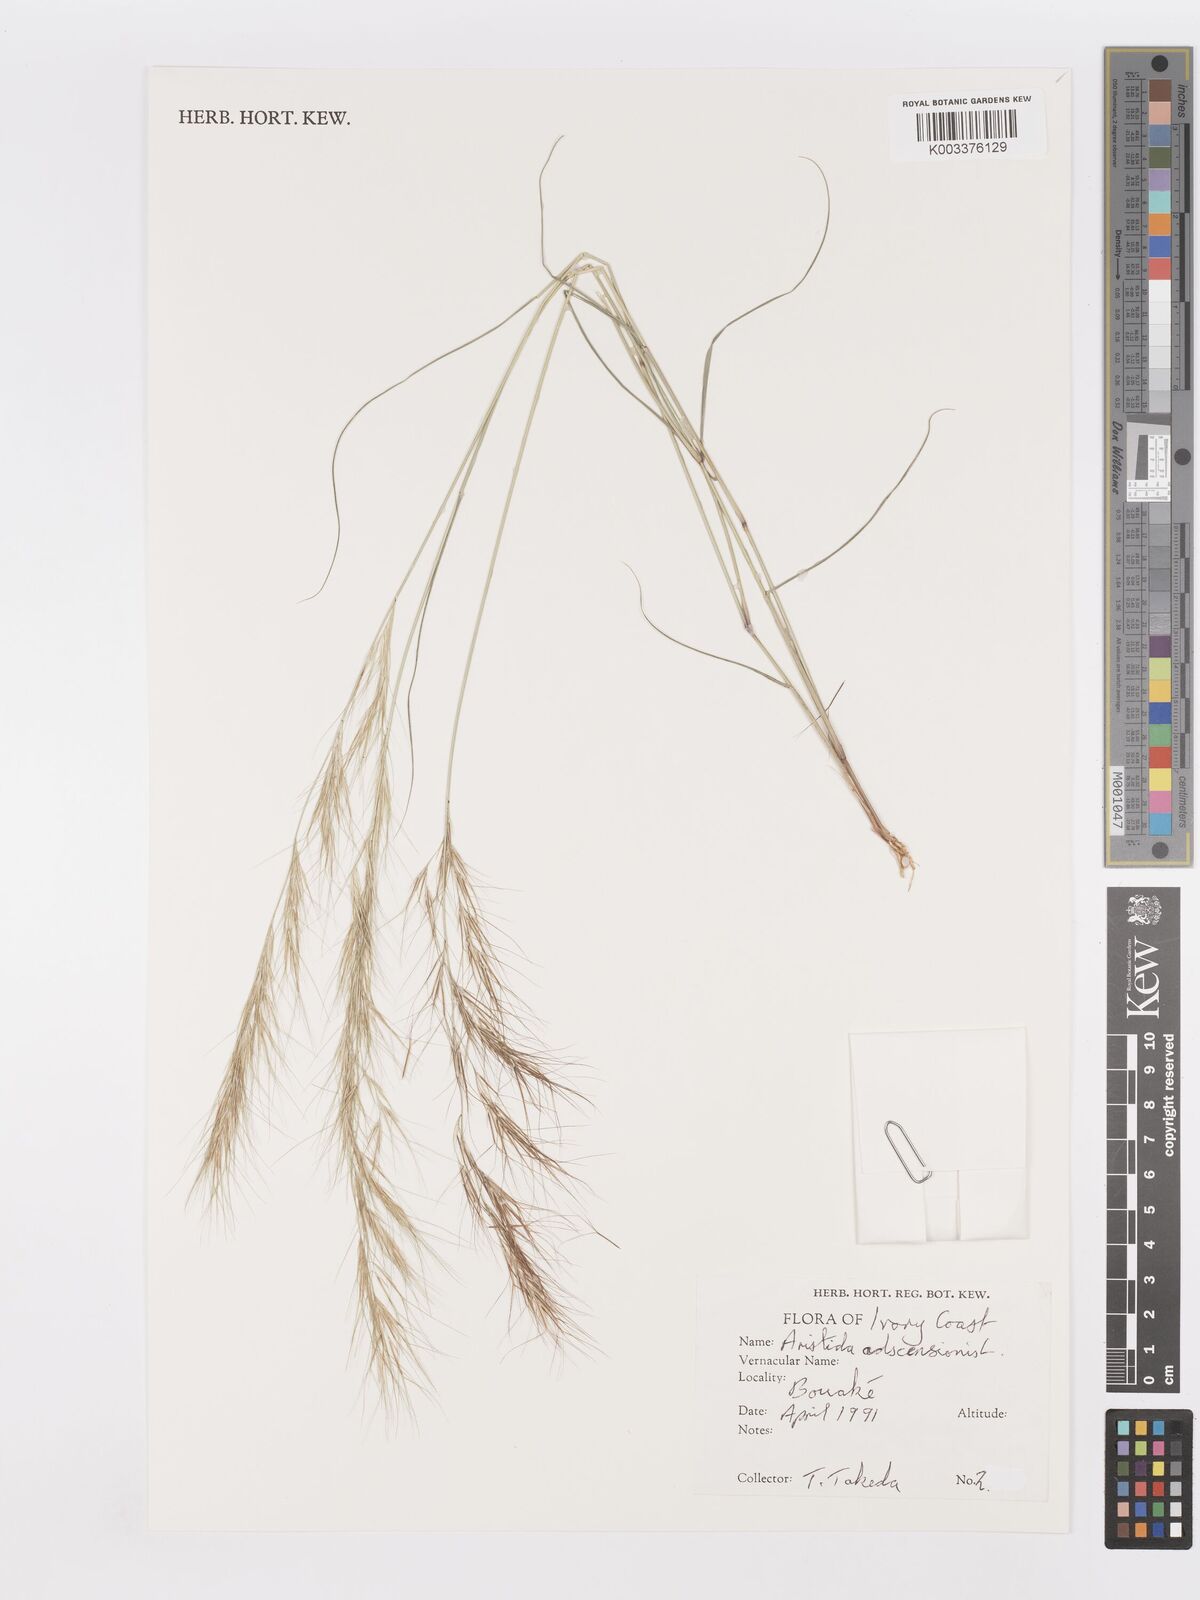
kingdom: Plantae
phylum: Tracheophyta
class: Liliopsida
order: Poales
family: Poaceae
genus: Aristida
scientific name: Aristida adscensionis
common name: Sixweeks threeawn
